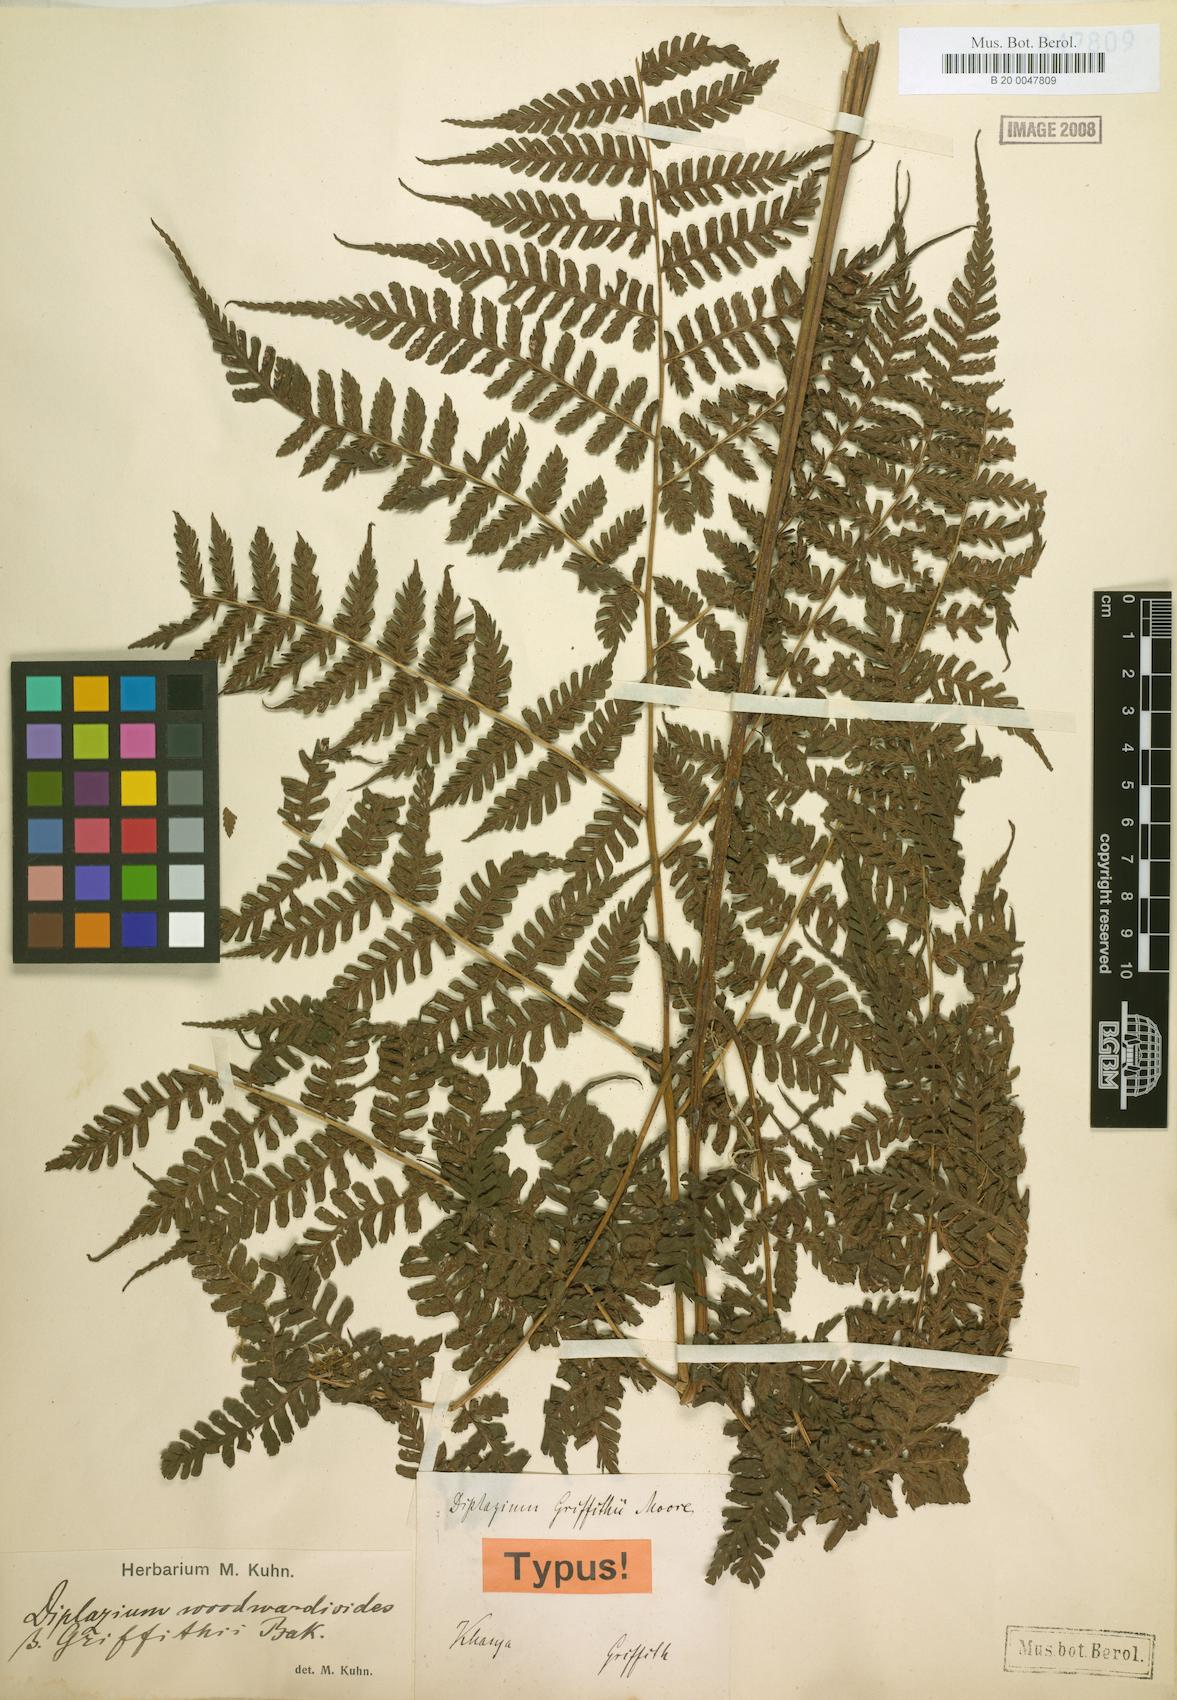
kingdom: Plantae
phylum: Tracheophyta
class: Polypodiopsida
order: Polypodiales
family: Athyriaceae
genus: Diplazium
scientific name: Diplazium griffithii
